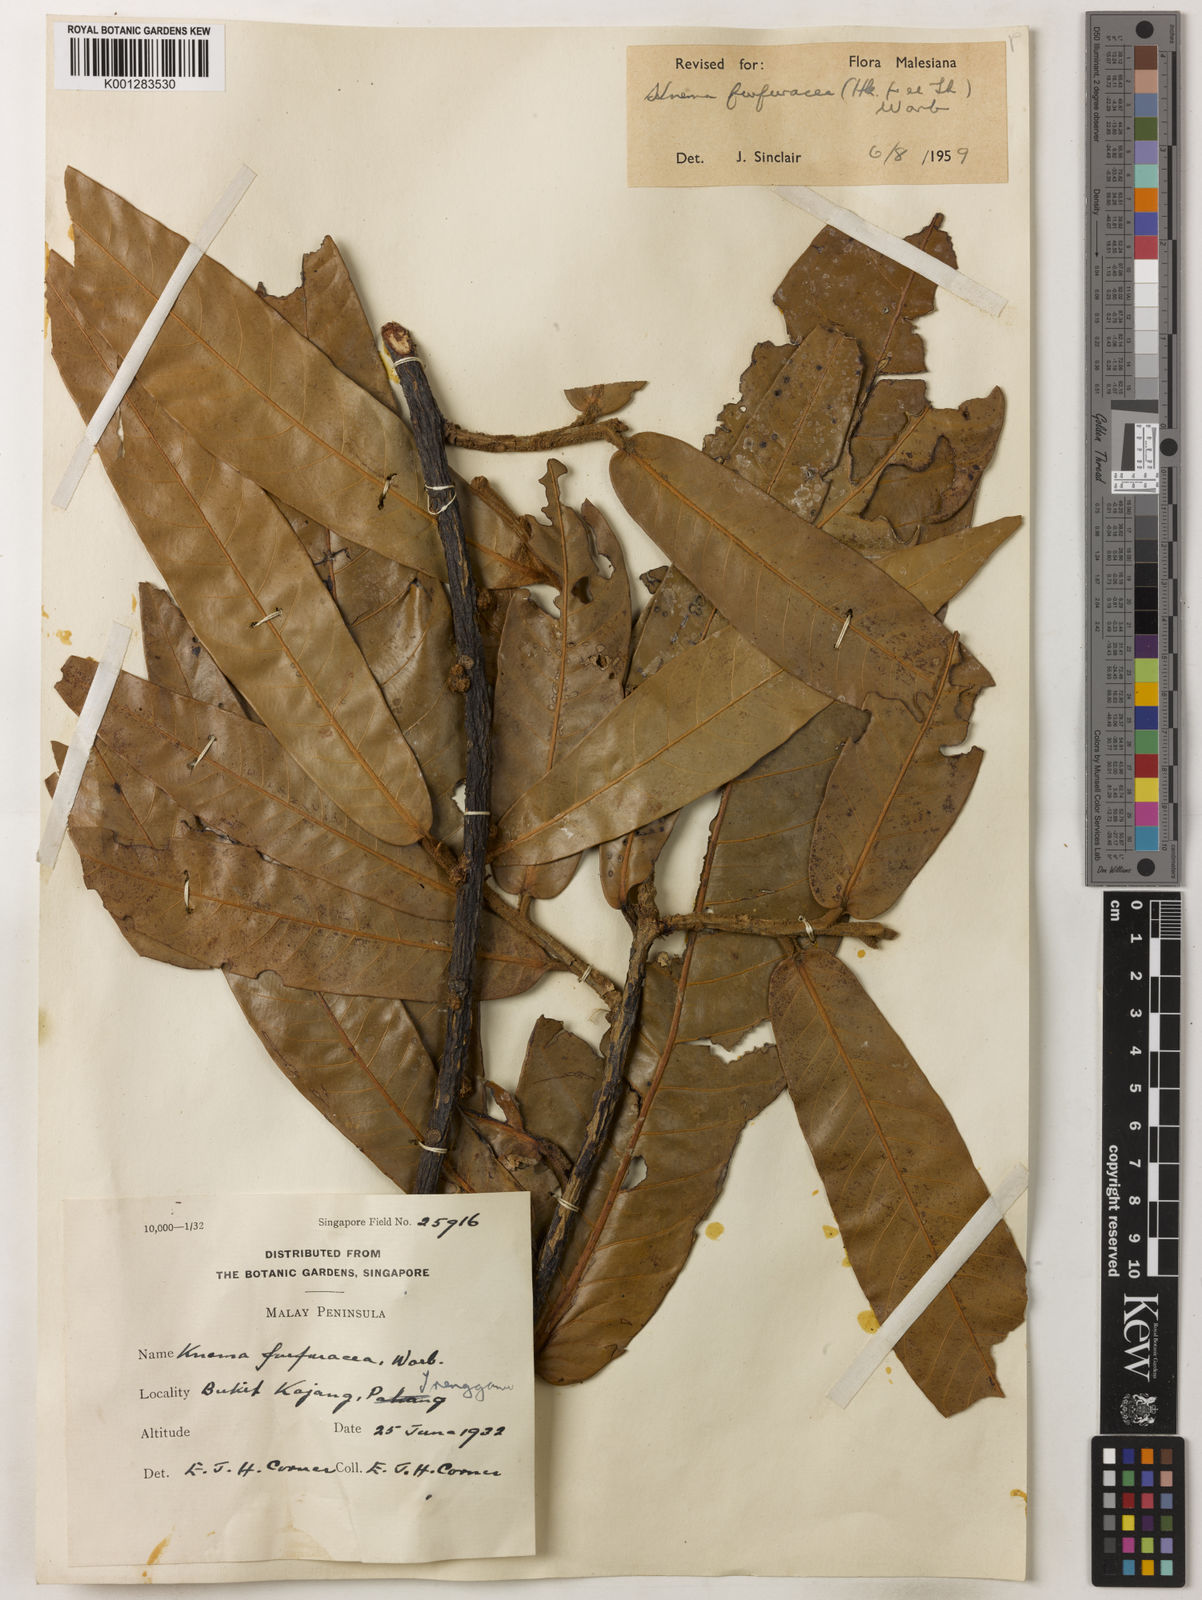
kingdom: Plantae
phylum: Tracheophyta
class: Magnoliopsida
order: Magnoliales
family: Myristicaceae
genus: Knema
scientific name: Knema furfuracea
